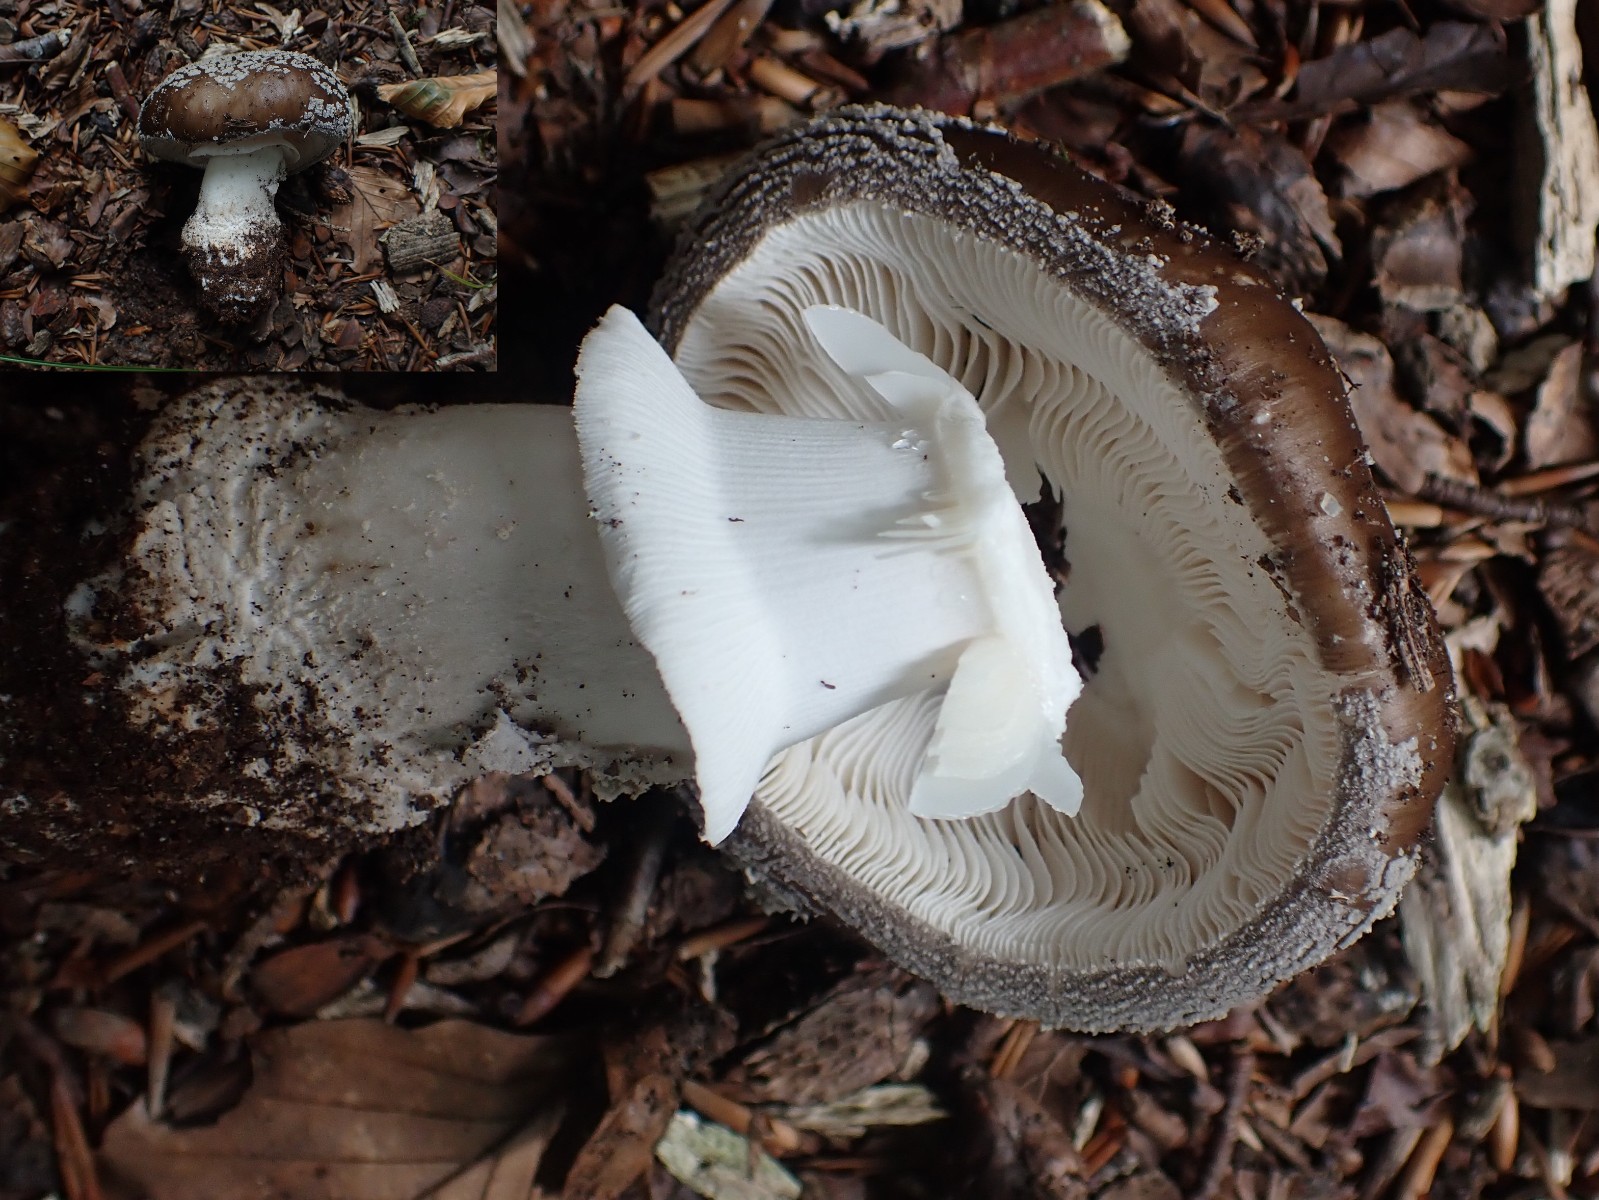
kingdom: Fungi
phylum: Basidiomycota
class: Agaricomycetes
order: Agaricales
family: Amanitaceae
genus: Amanita
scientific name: Amanita
